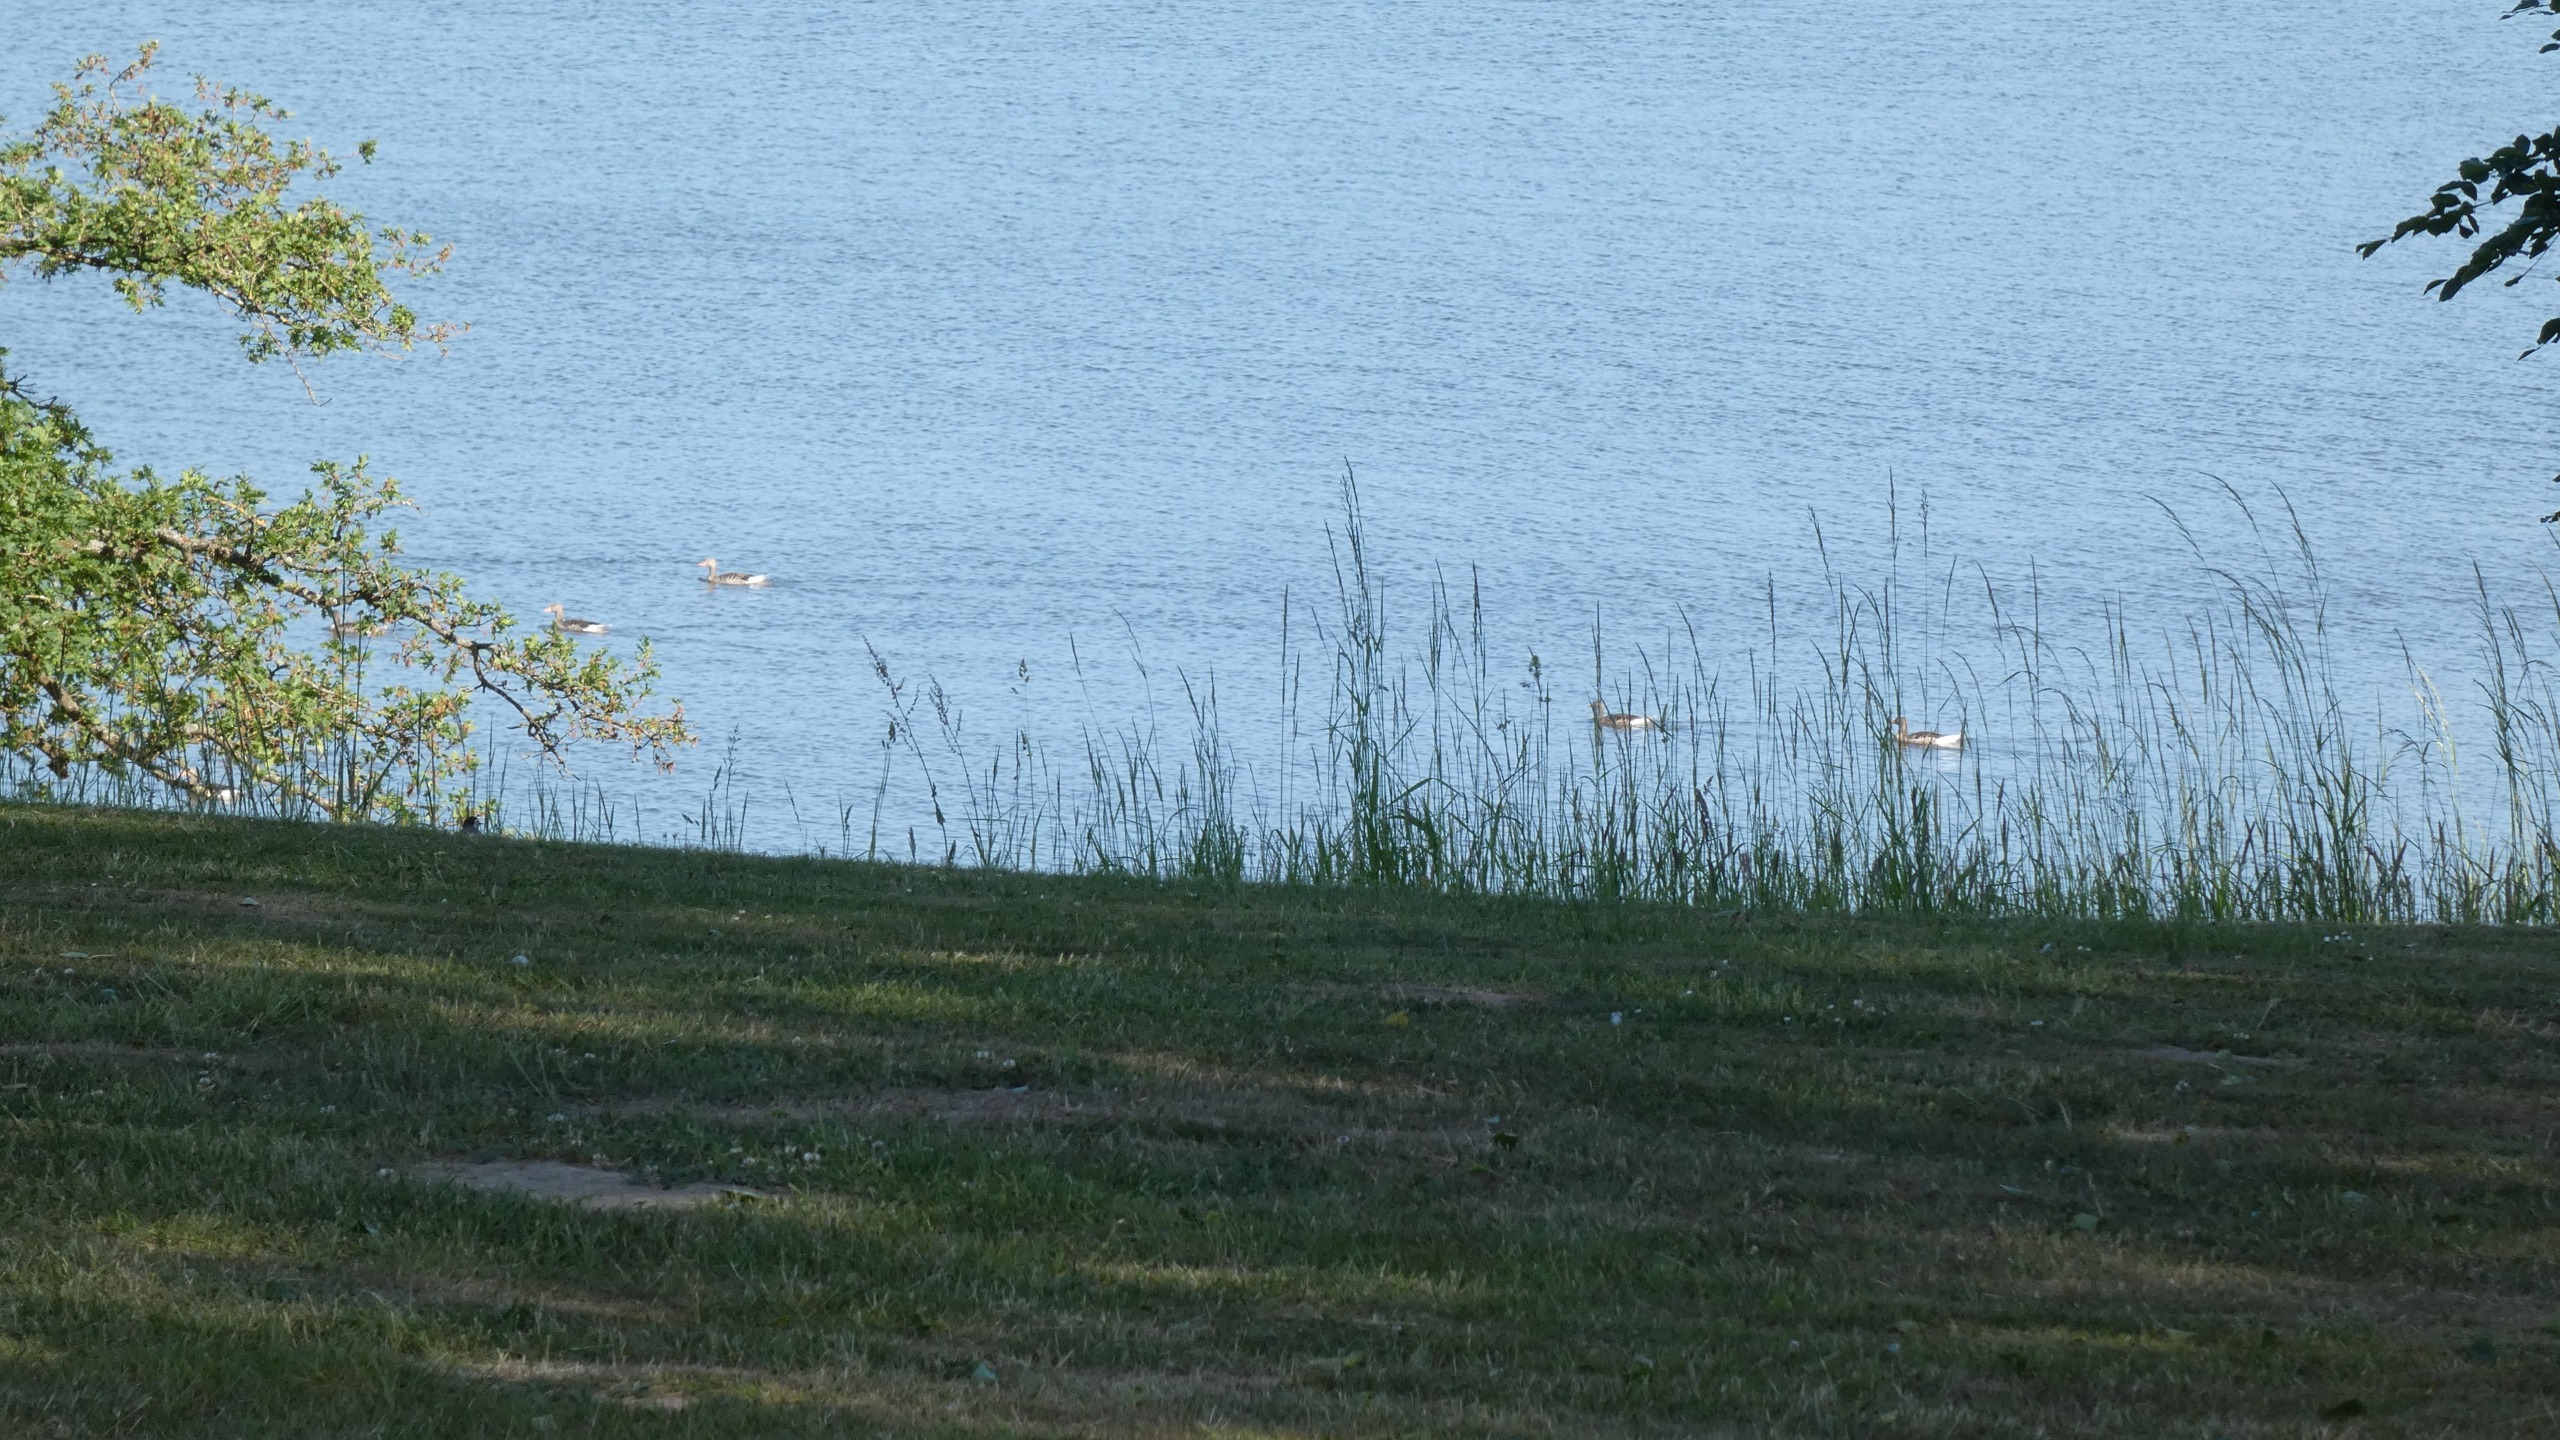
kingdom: Animalia
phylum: Chordata
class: Aves
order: Anseriformes
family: Anatidae
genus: Anser
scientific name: Anser anser
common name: Grågås
